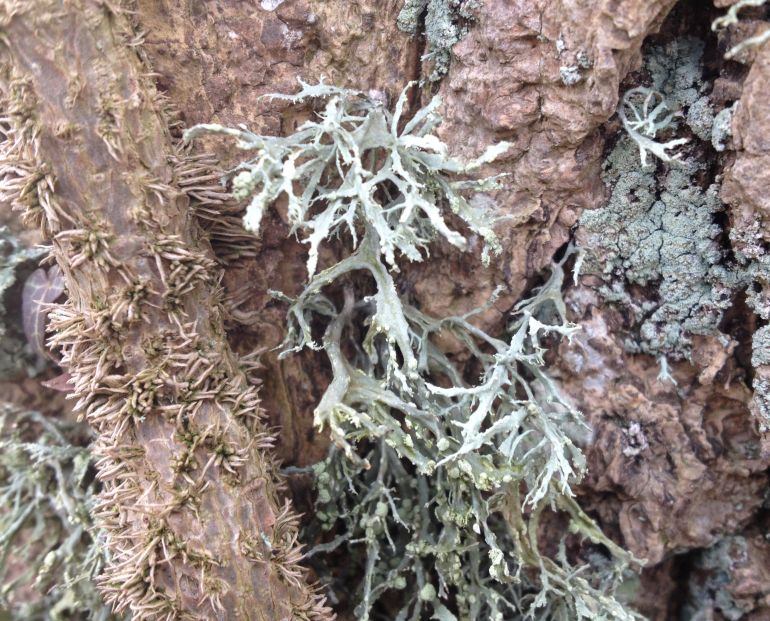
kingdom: Fungi
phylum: Ascomycota
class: Lecanoromycetes
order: Lecanorales
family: Ramalinaceae
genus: Ramalina
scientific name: Ramalina farinacea
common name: melet grenlav
